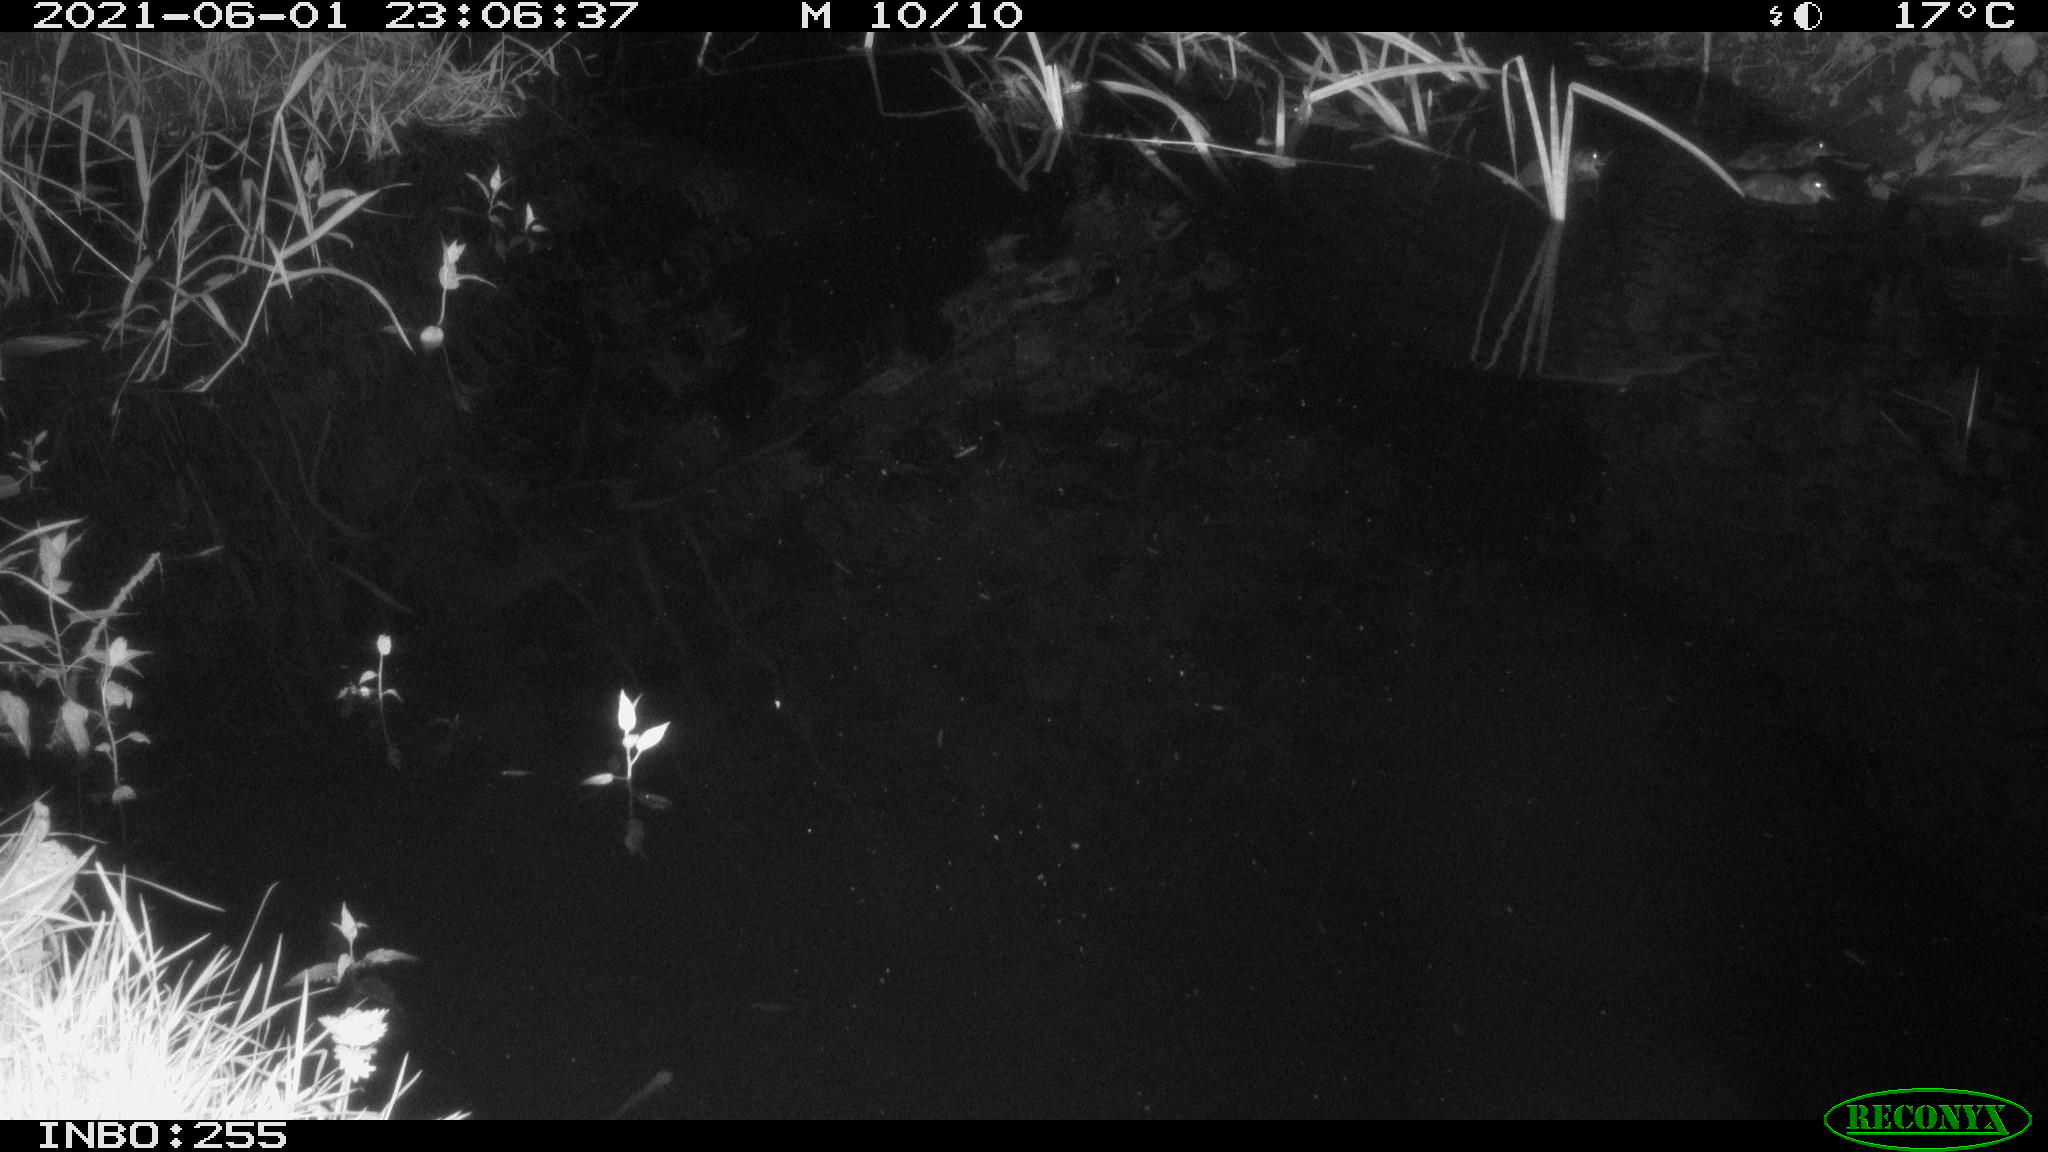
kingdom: Animalia
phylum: Chordata
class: Aves
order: Anseriformes
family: Anatidae
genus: Anas
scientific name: Anas platyrhynchos
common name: Mallard
